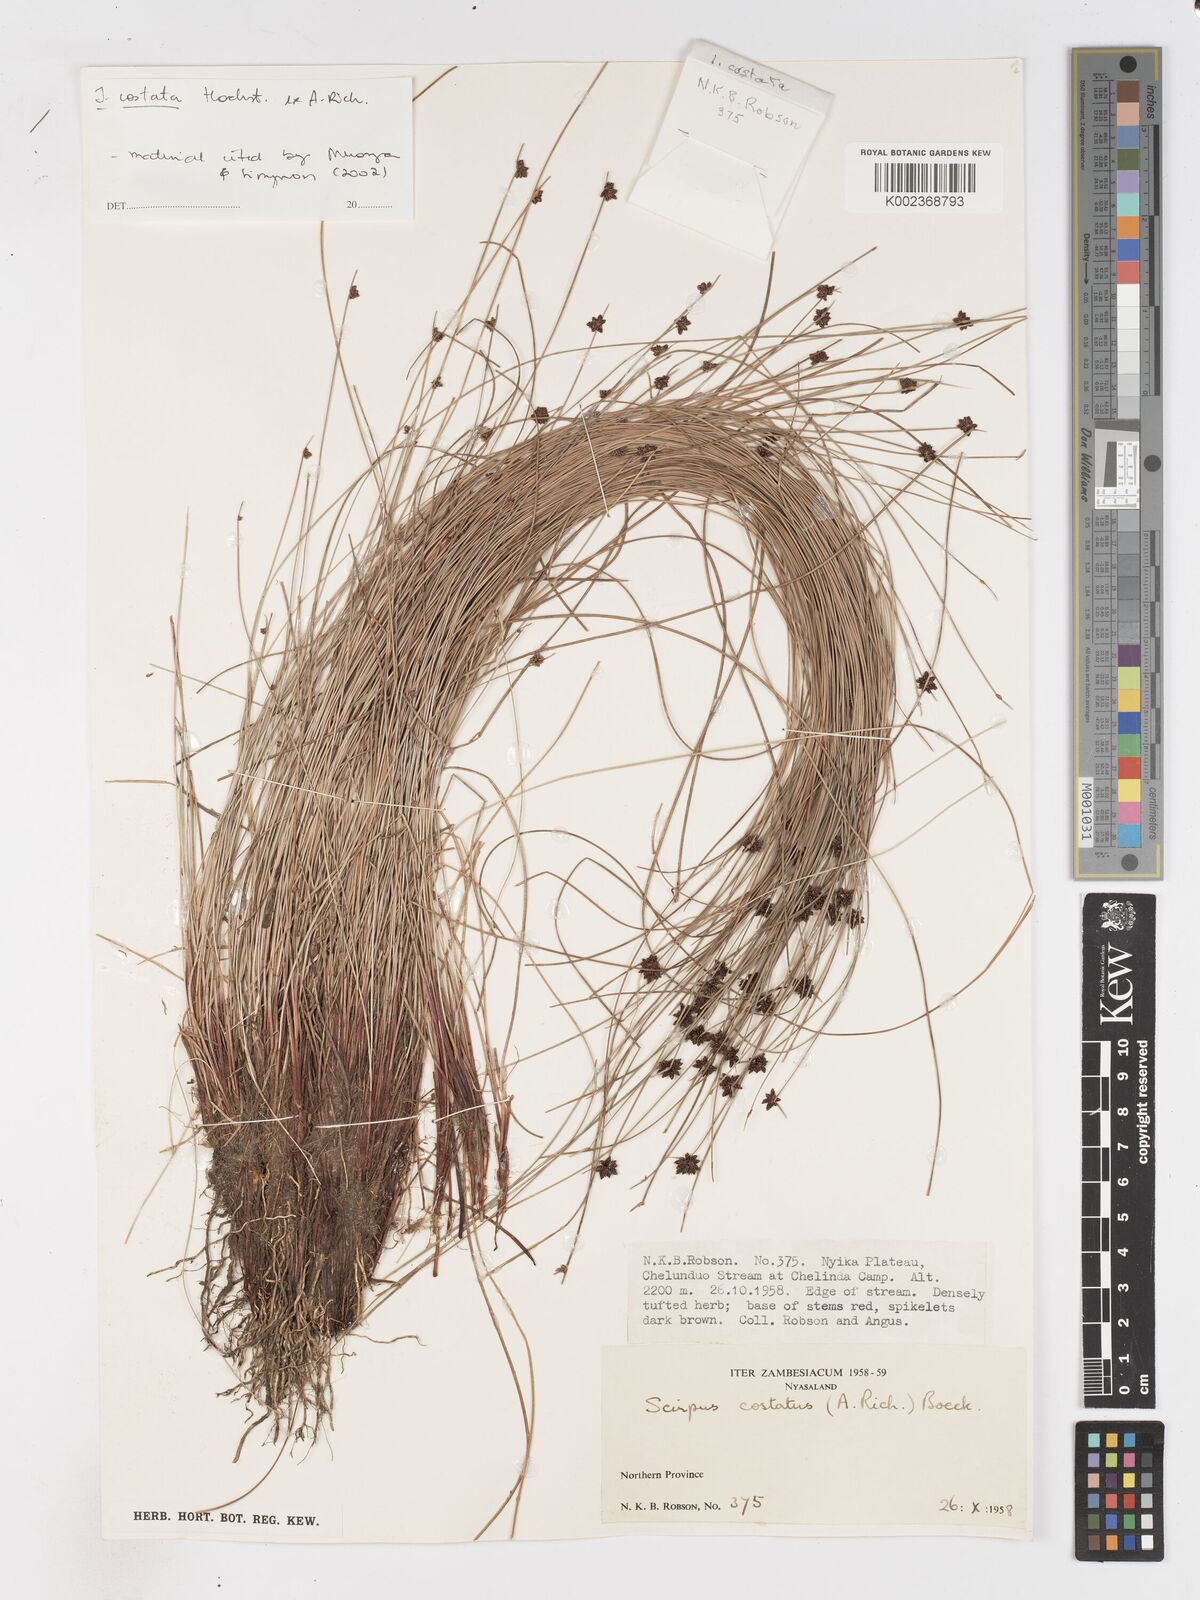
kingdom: Plantae
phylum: Tracheophyta
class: Liliopsida
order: Poales
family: Cyperaceae
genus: Isolepis
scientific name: Isolepis costata
